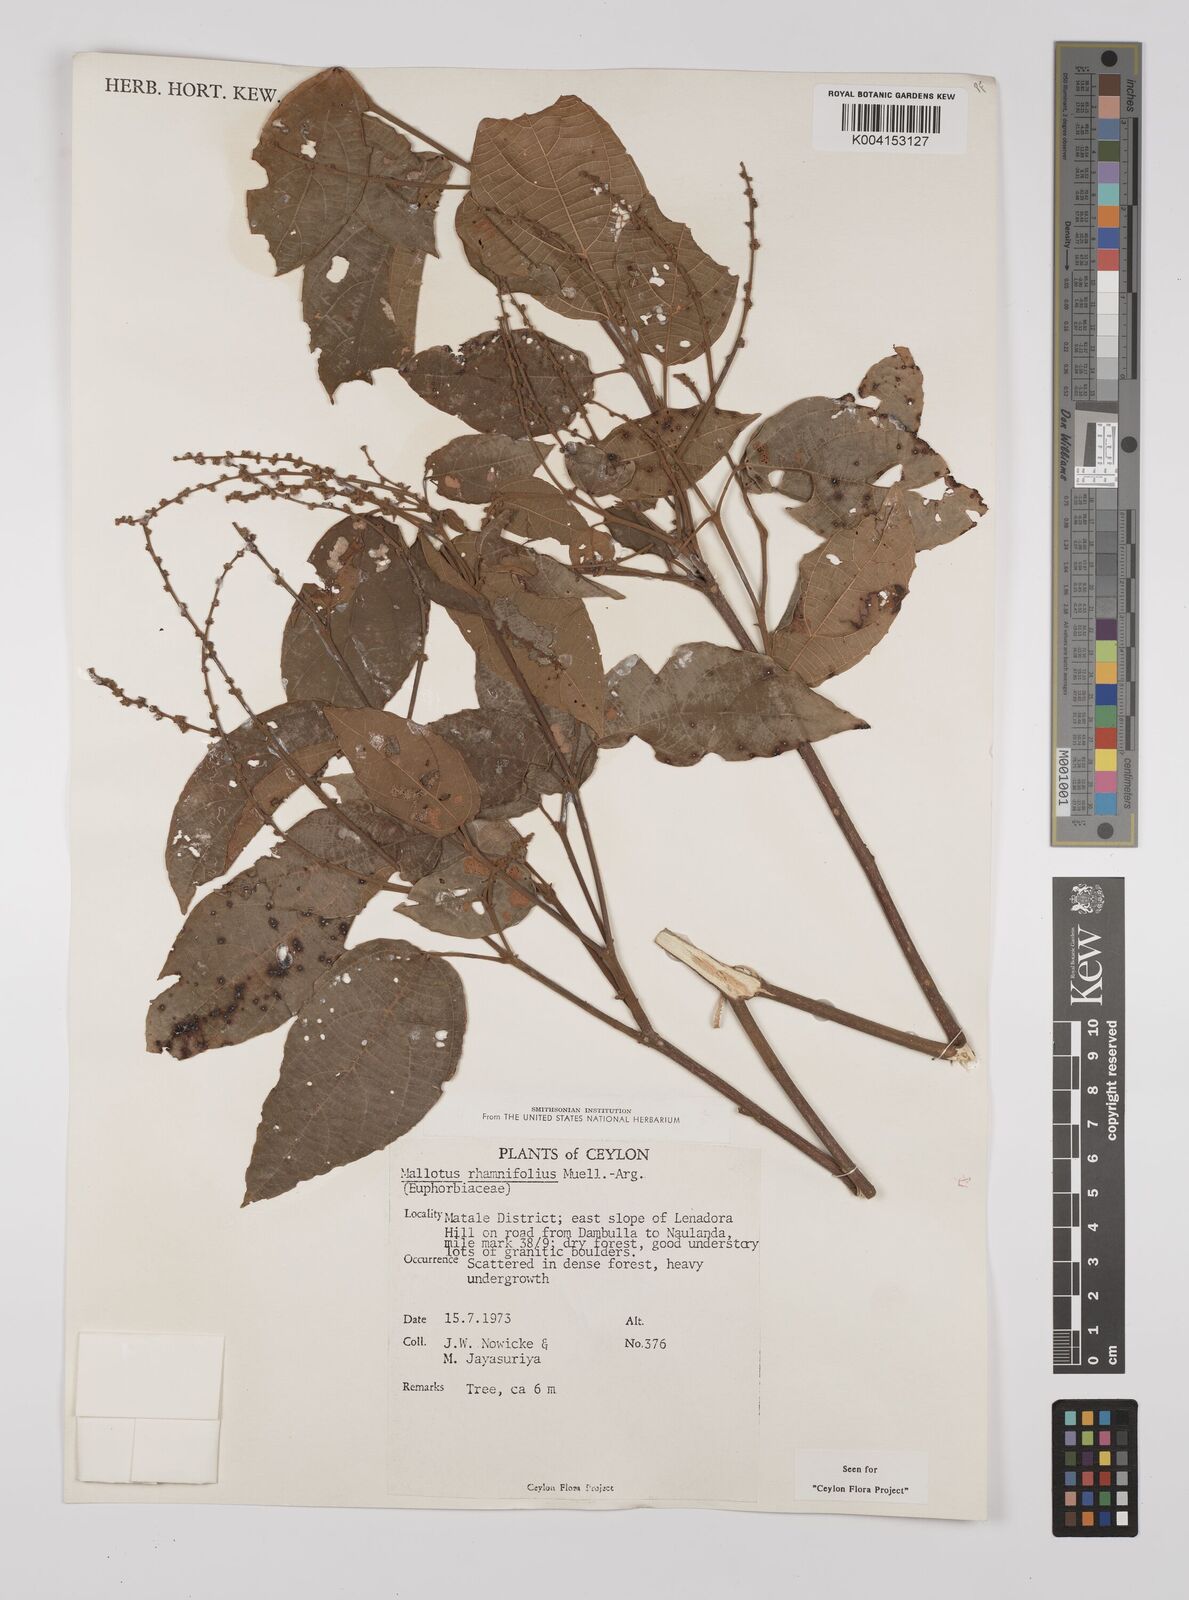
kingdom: Plantae
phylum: Tracheophyta
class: Magnoliopsida
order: Malpighiales
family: Euphorbiaceae
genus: Mallotus
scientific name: Mallotus rhamnifolius
